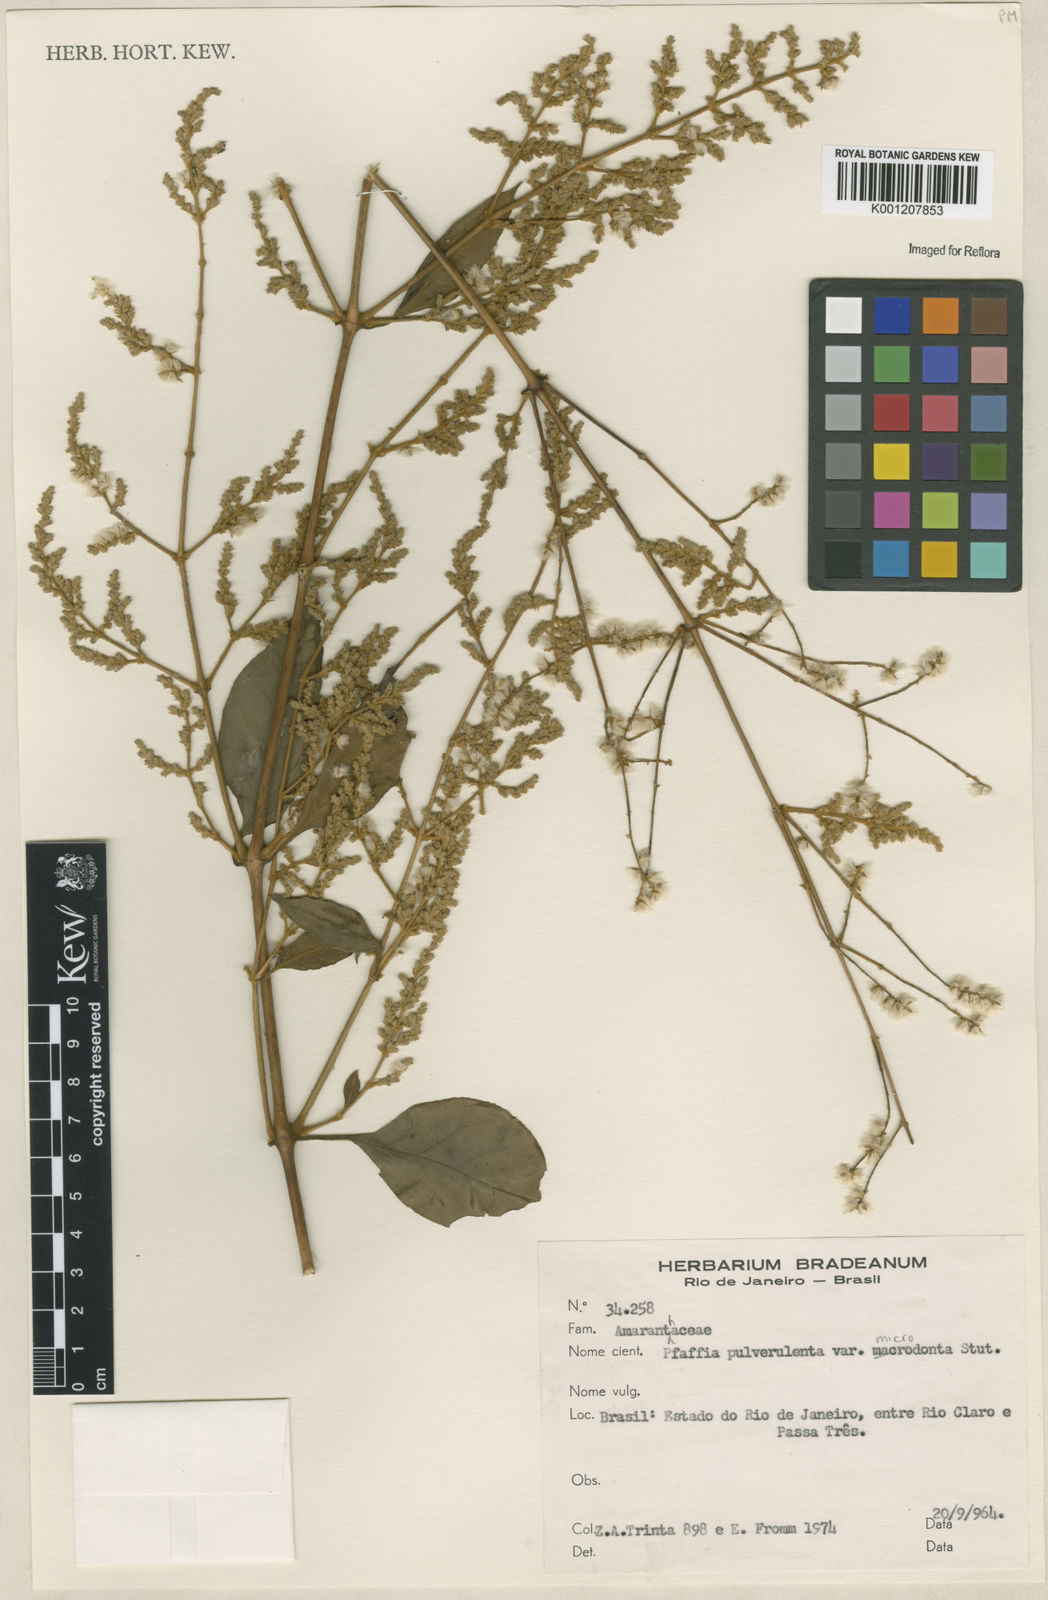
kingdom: Plantae
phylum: Tracheophyta
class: Magnoliopsida
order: Caryophyllales
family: Amaranthaceae
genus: Hebanthe
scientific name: Hebanthe pulverulenta
